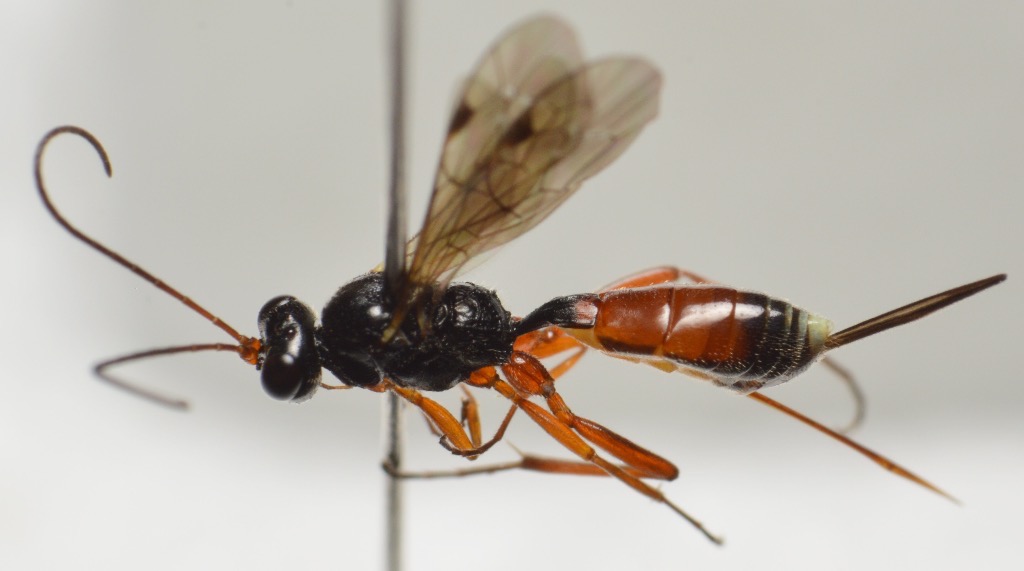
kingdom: Animalia
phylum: Arthropoda
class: Insecta
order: Hymenoptera
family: Ichneumonidae
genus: Xiphulcus
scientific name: Xiphulcus floricolator
